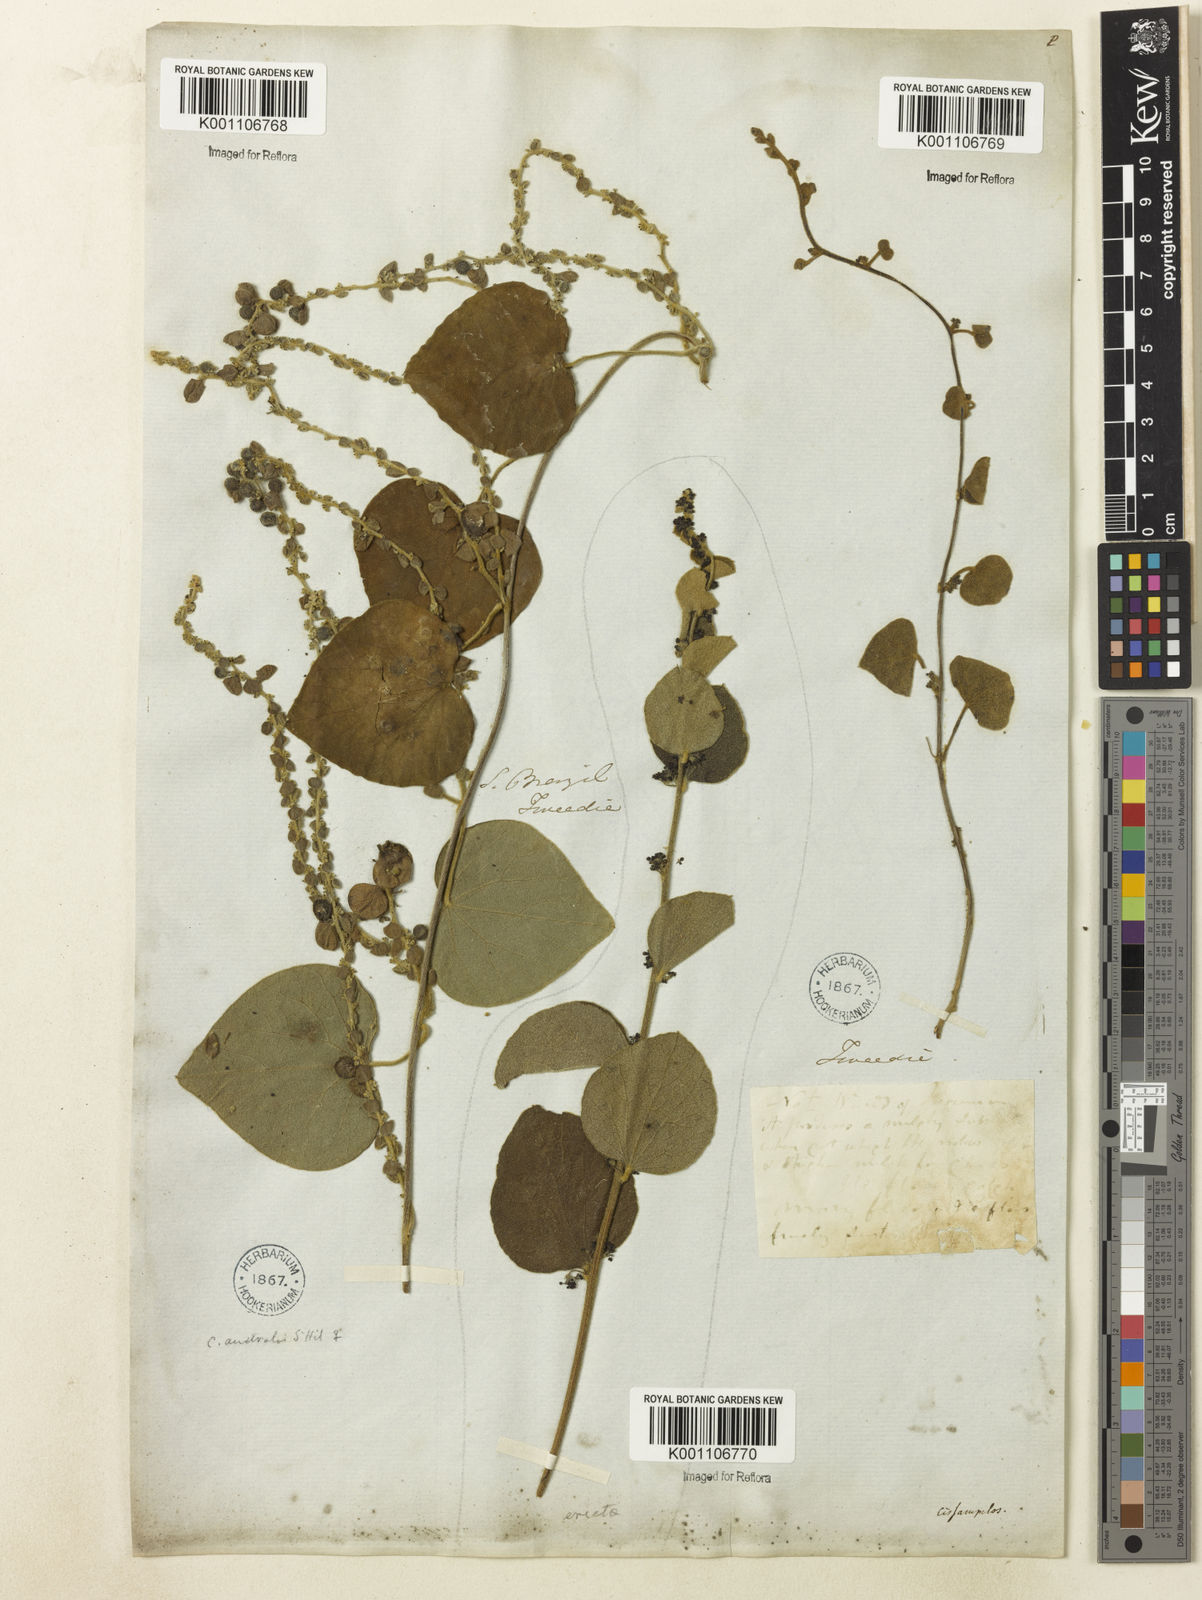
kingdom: Plantae
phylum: Tracheophyta
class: Magnoliopsida
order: Ranunculales
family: Menispermaceae
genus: Cissampelos
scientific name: Cissampelos pareira
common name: Velvetleaf
